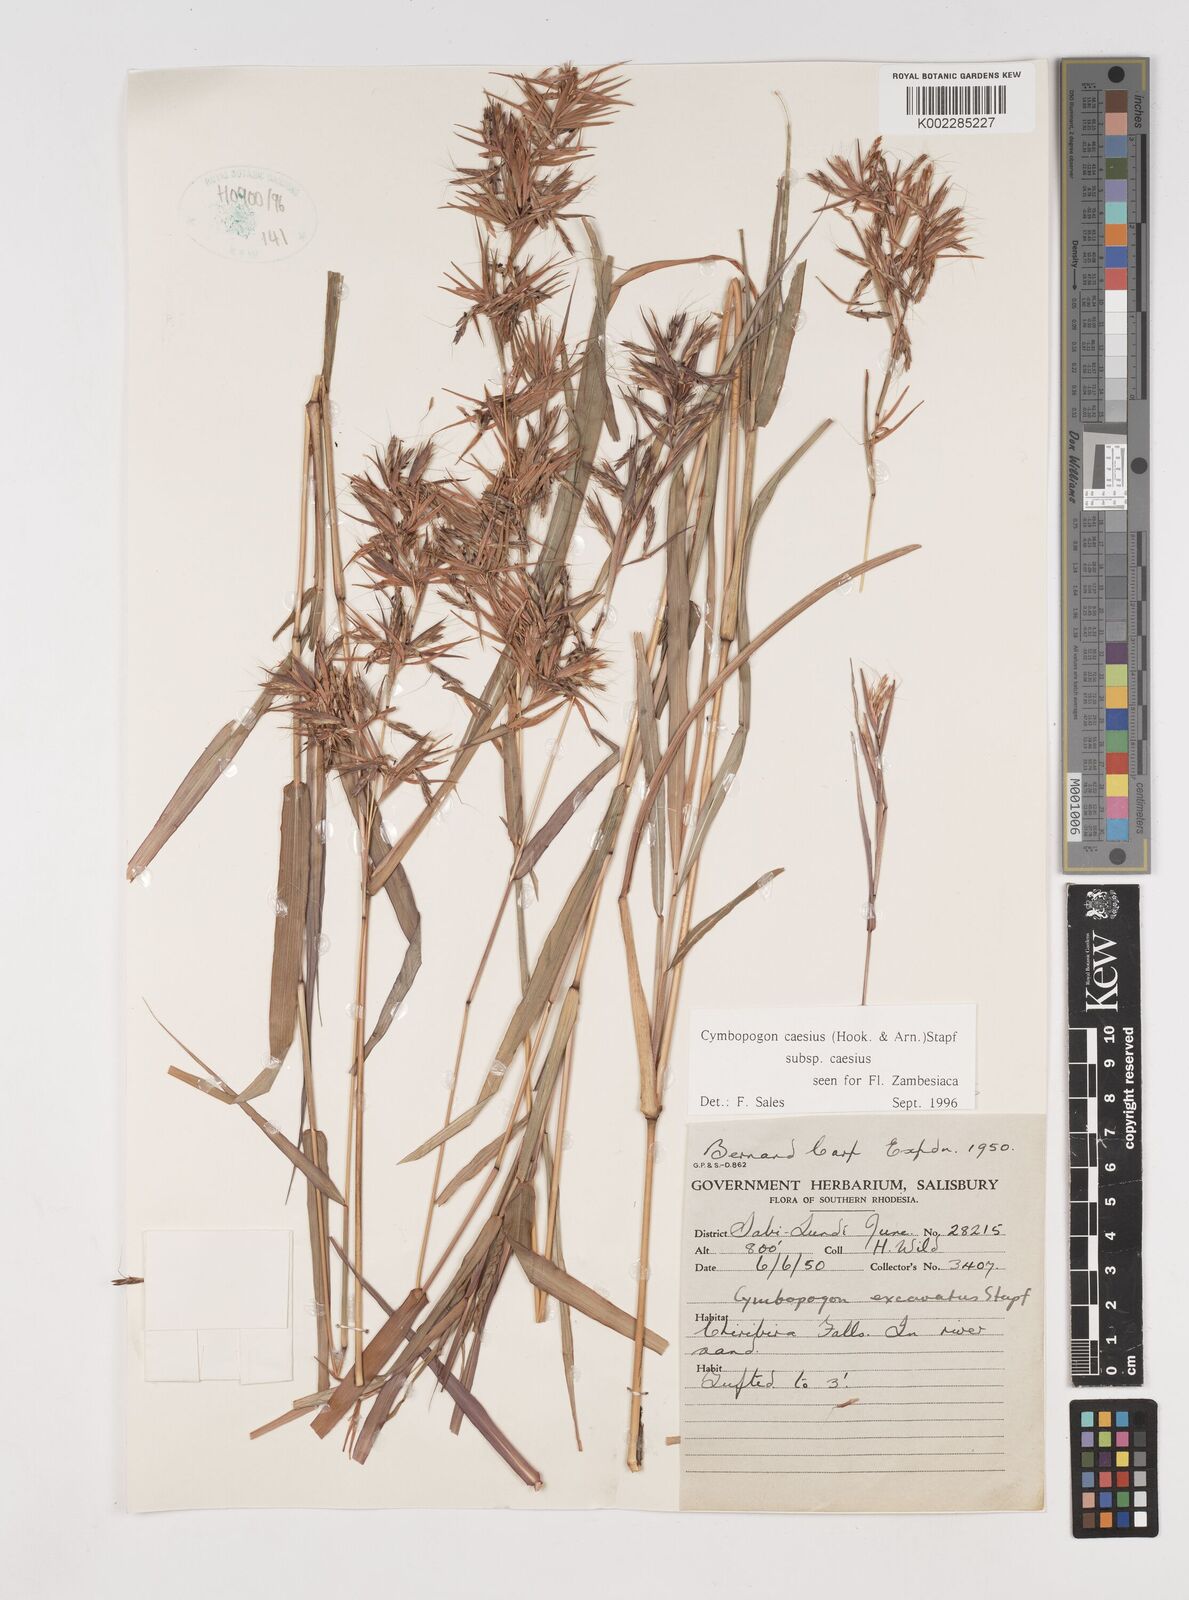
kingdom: Plantae
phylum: Tracheophyta
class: Liliopsida
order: Poales
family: Poaceae
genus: Cymbopogon
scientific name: Cymbopogon caesius
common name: Kachi grass
